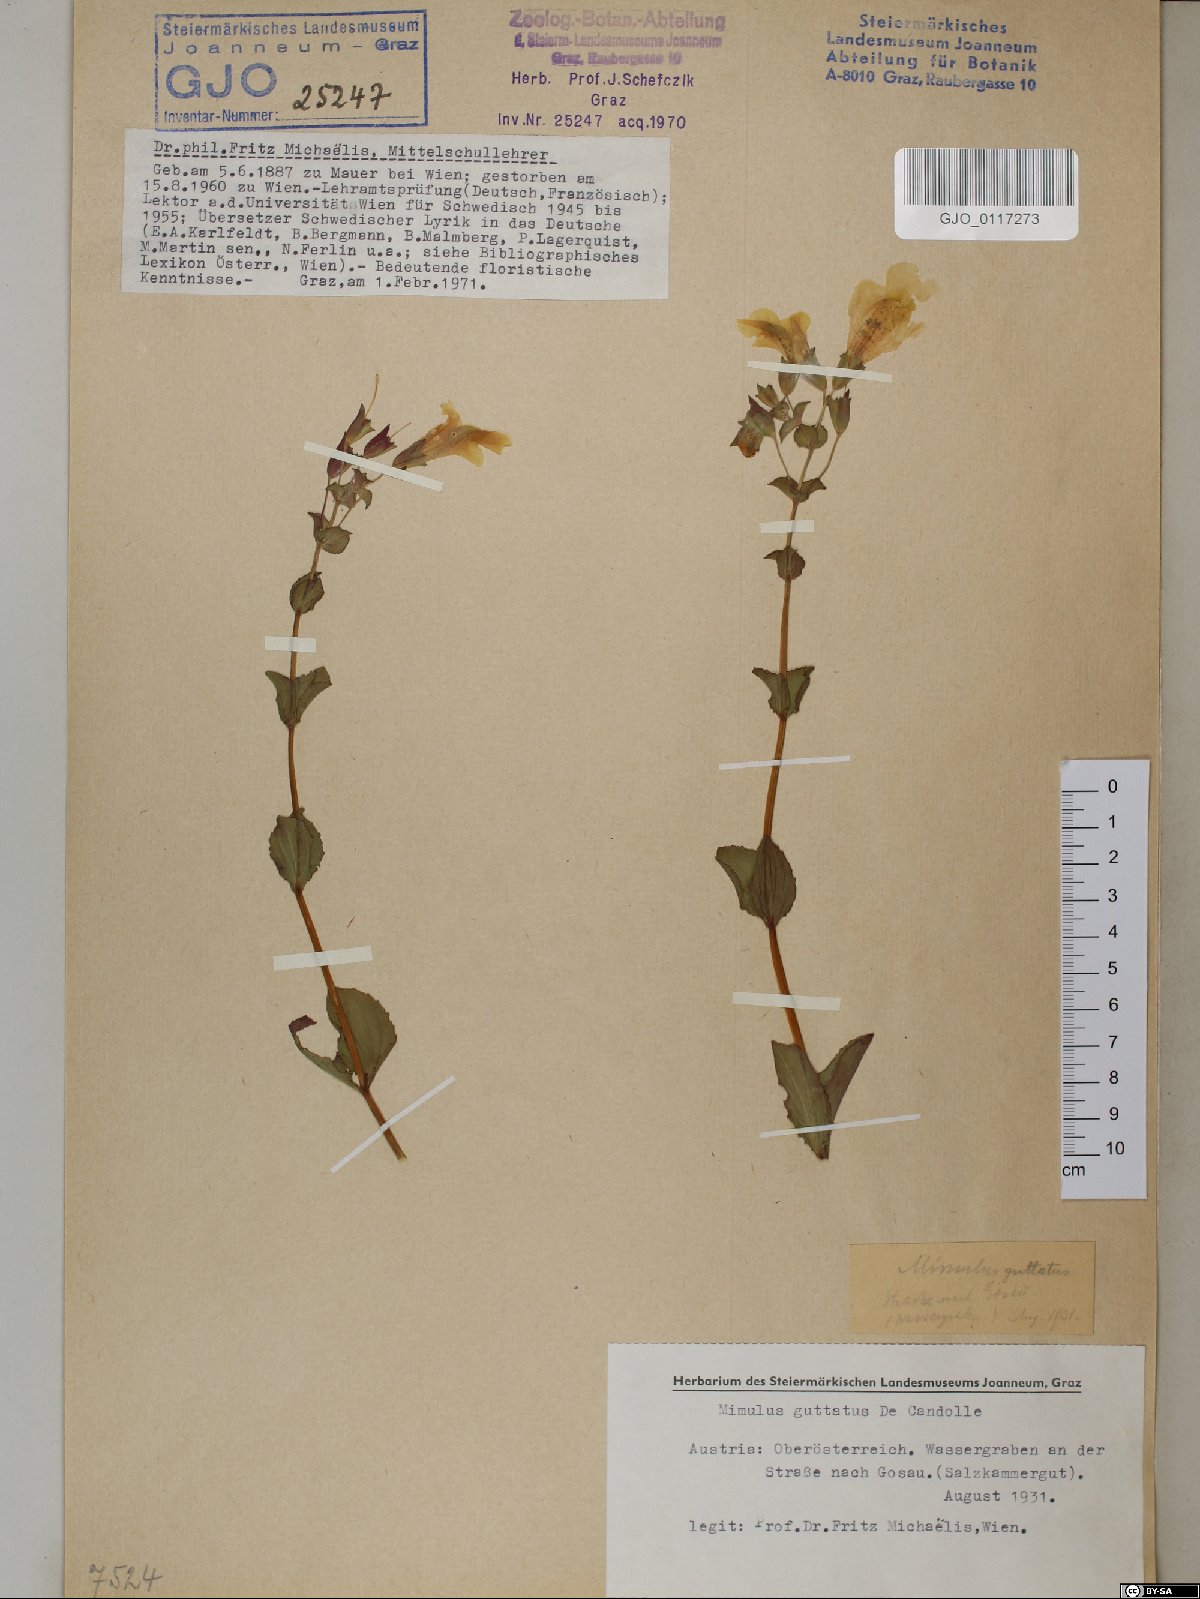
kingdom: Plantae
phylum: Tracheophyta
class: Magnoliopsida
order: Lamiales
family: Phrymaceae
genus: Erythranthe
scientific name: Erythranthe guttata
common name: Monkeyflower
